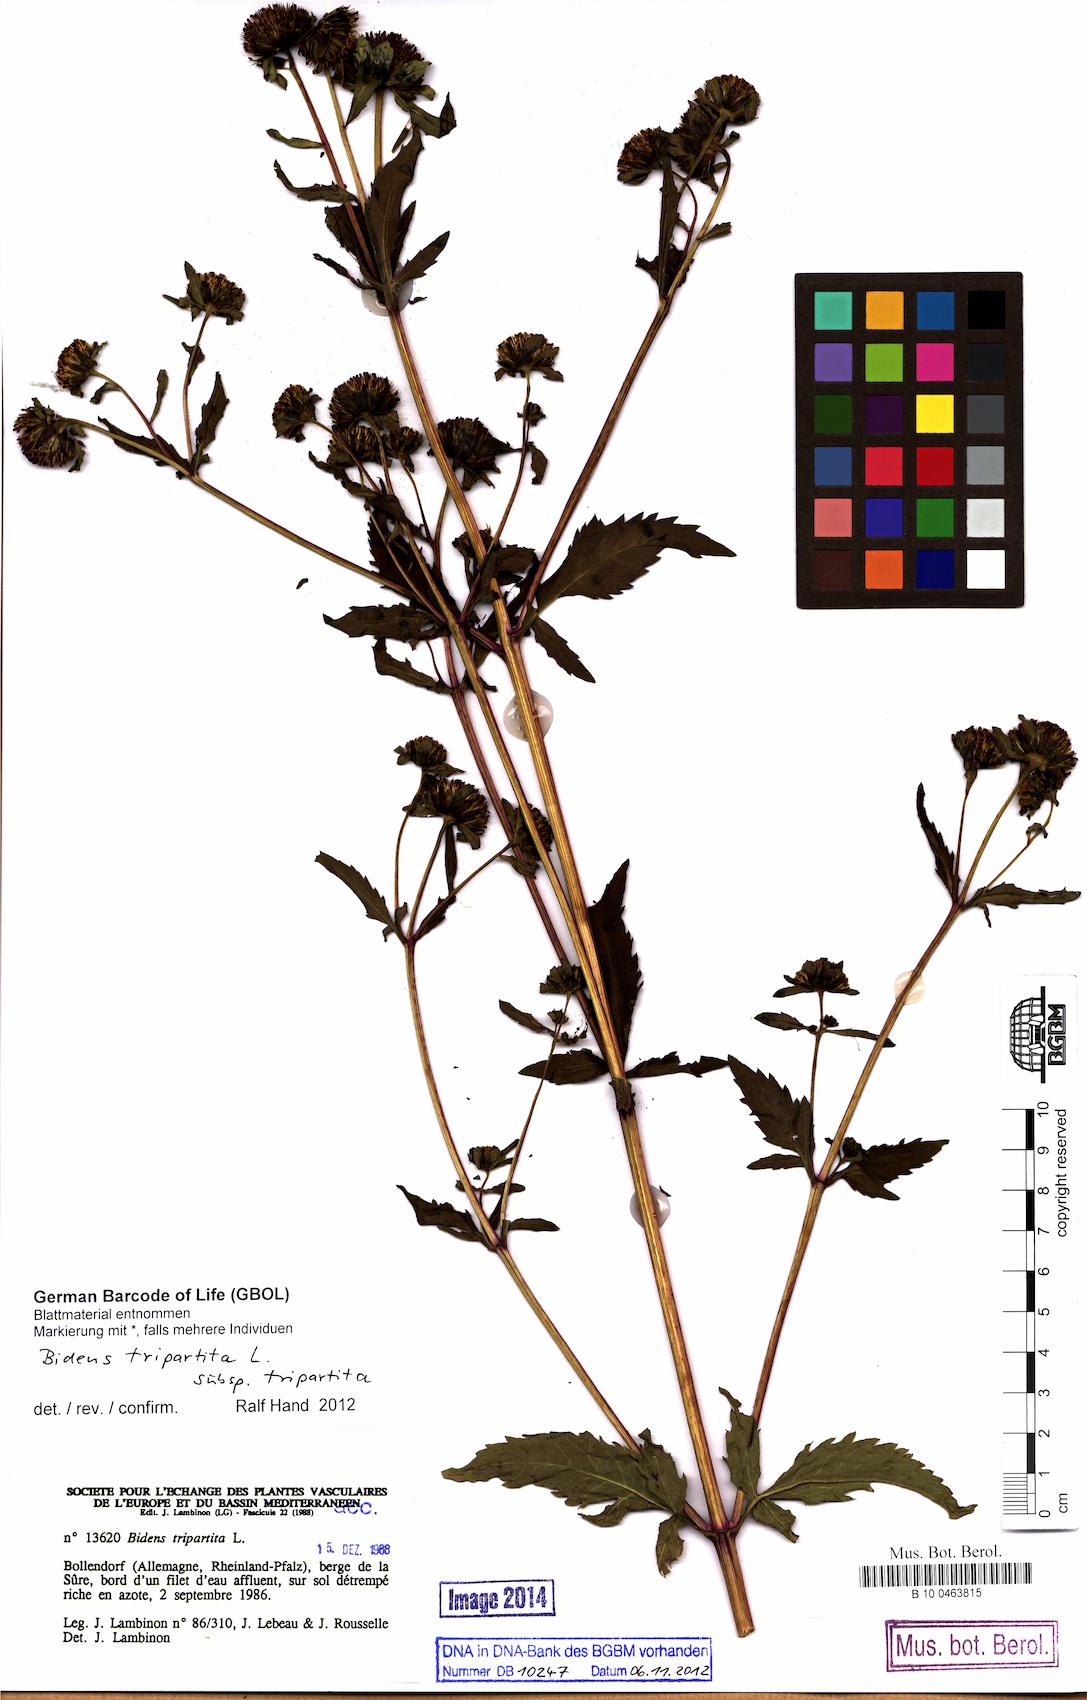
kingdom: Plantae
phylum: Tracheophyta
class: Magnoliopsida
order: Asterales
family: Asteraceae
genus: Bidens
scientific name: Bidens tripartita
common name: Trifid bur-marigold
